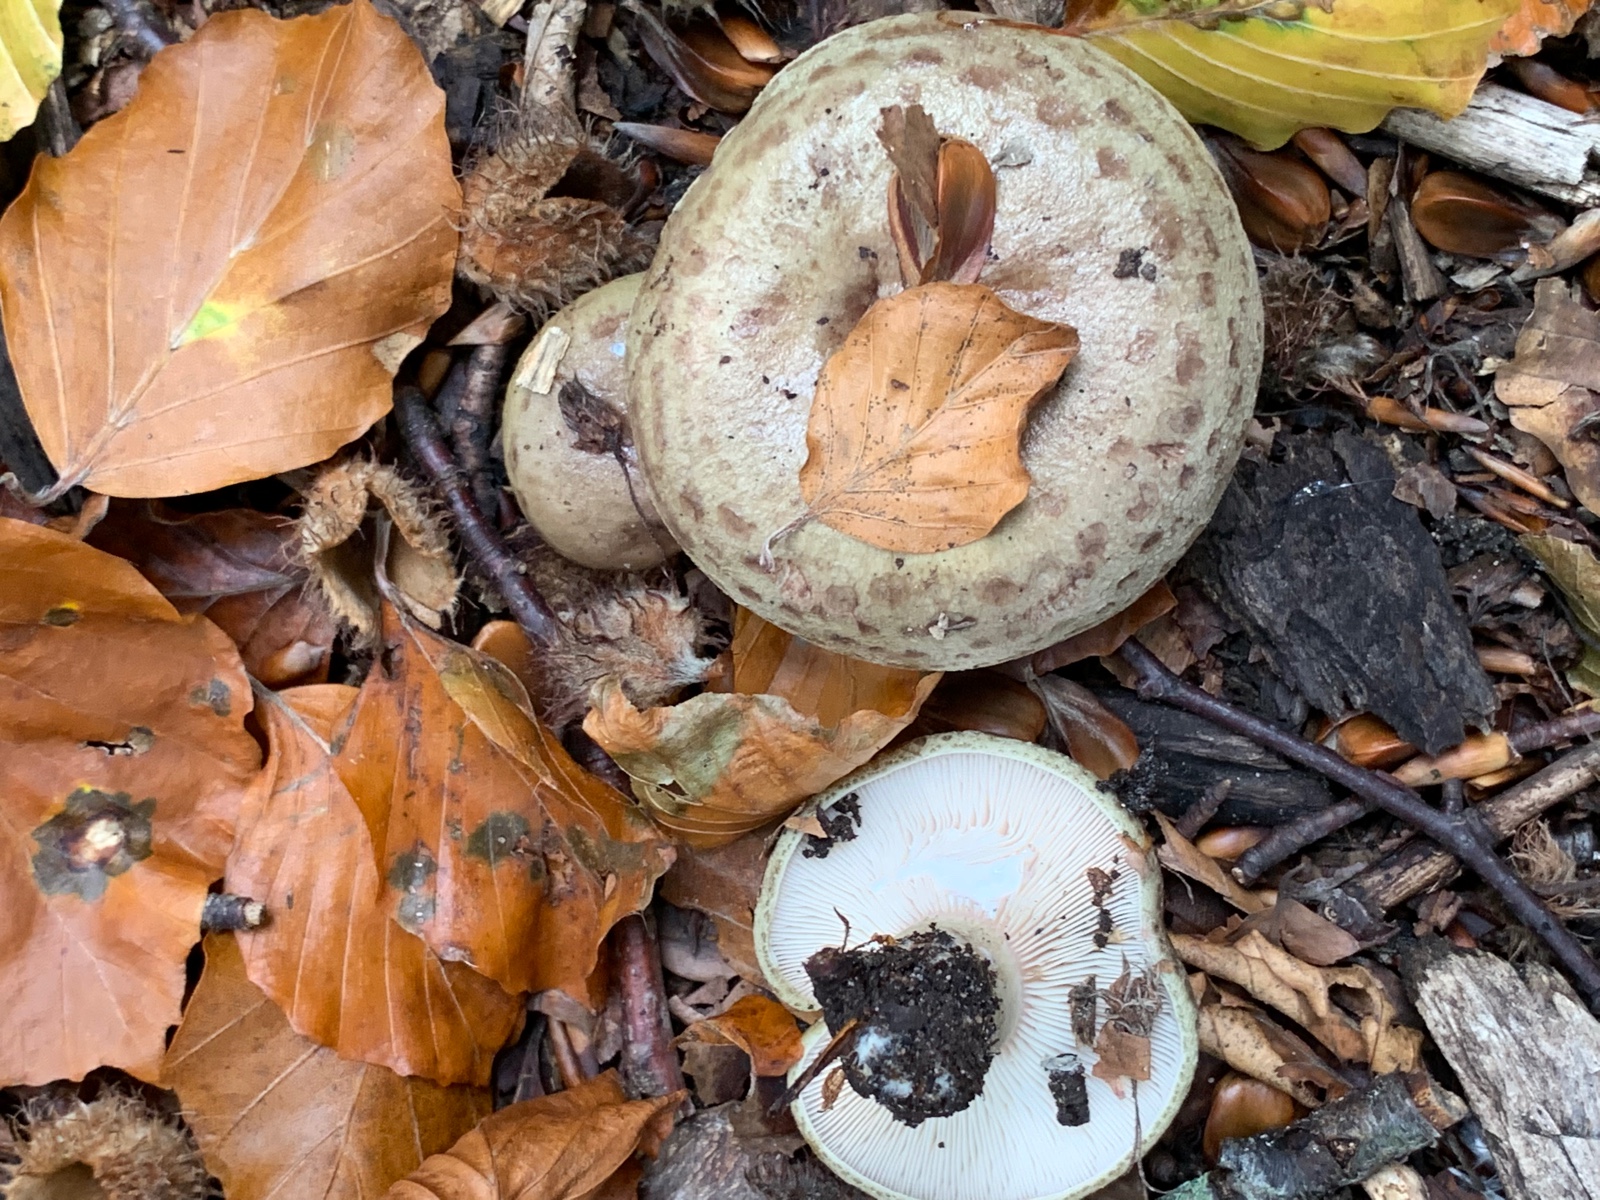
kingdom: Fungi
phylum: Basidiomycota
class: Agaricomycetes
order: Russulales
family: Russulaceae
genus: Lactarius
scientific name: Lactarius blennius
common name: dråbeplettet mælkehat
